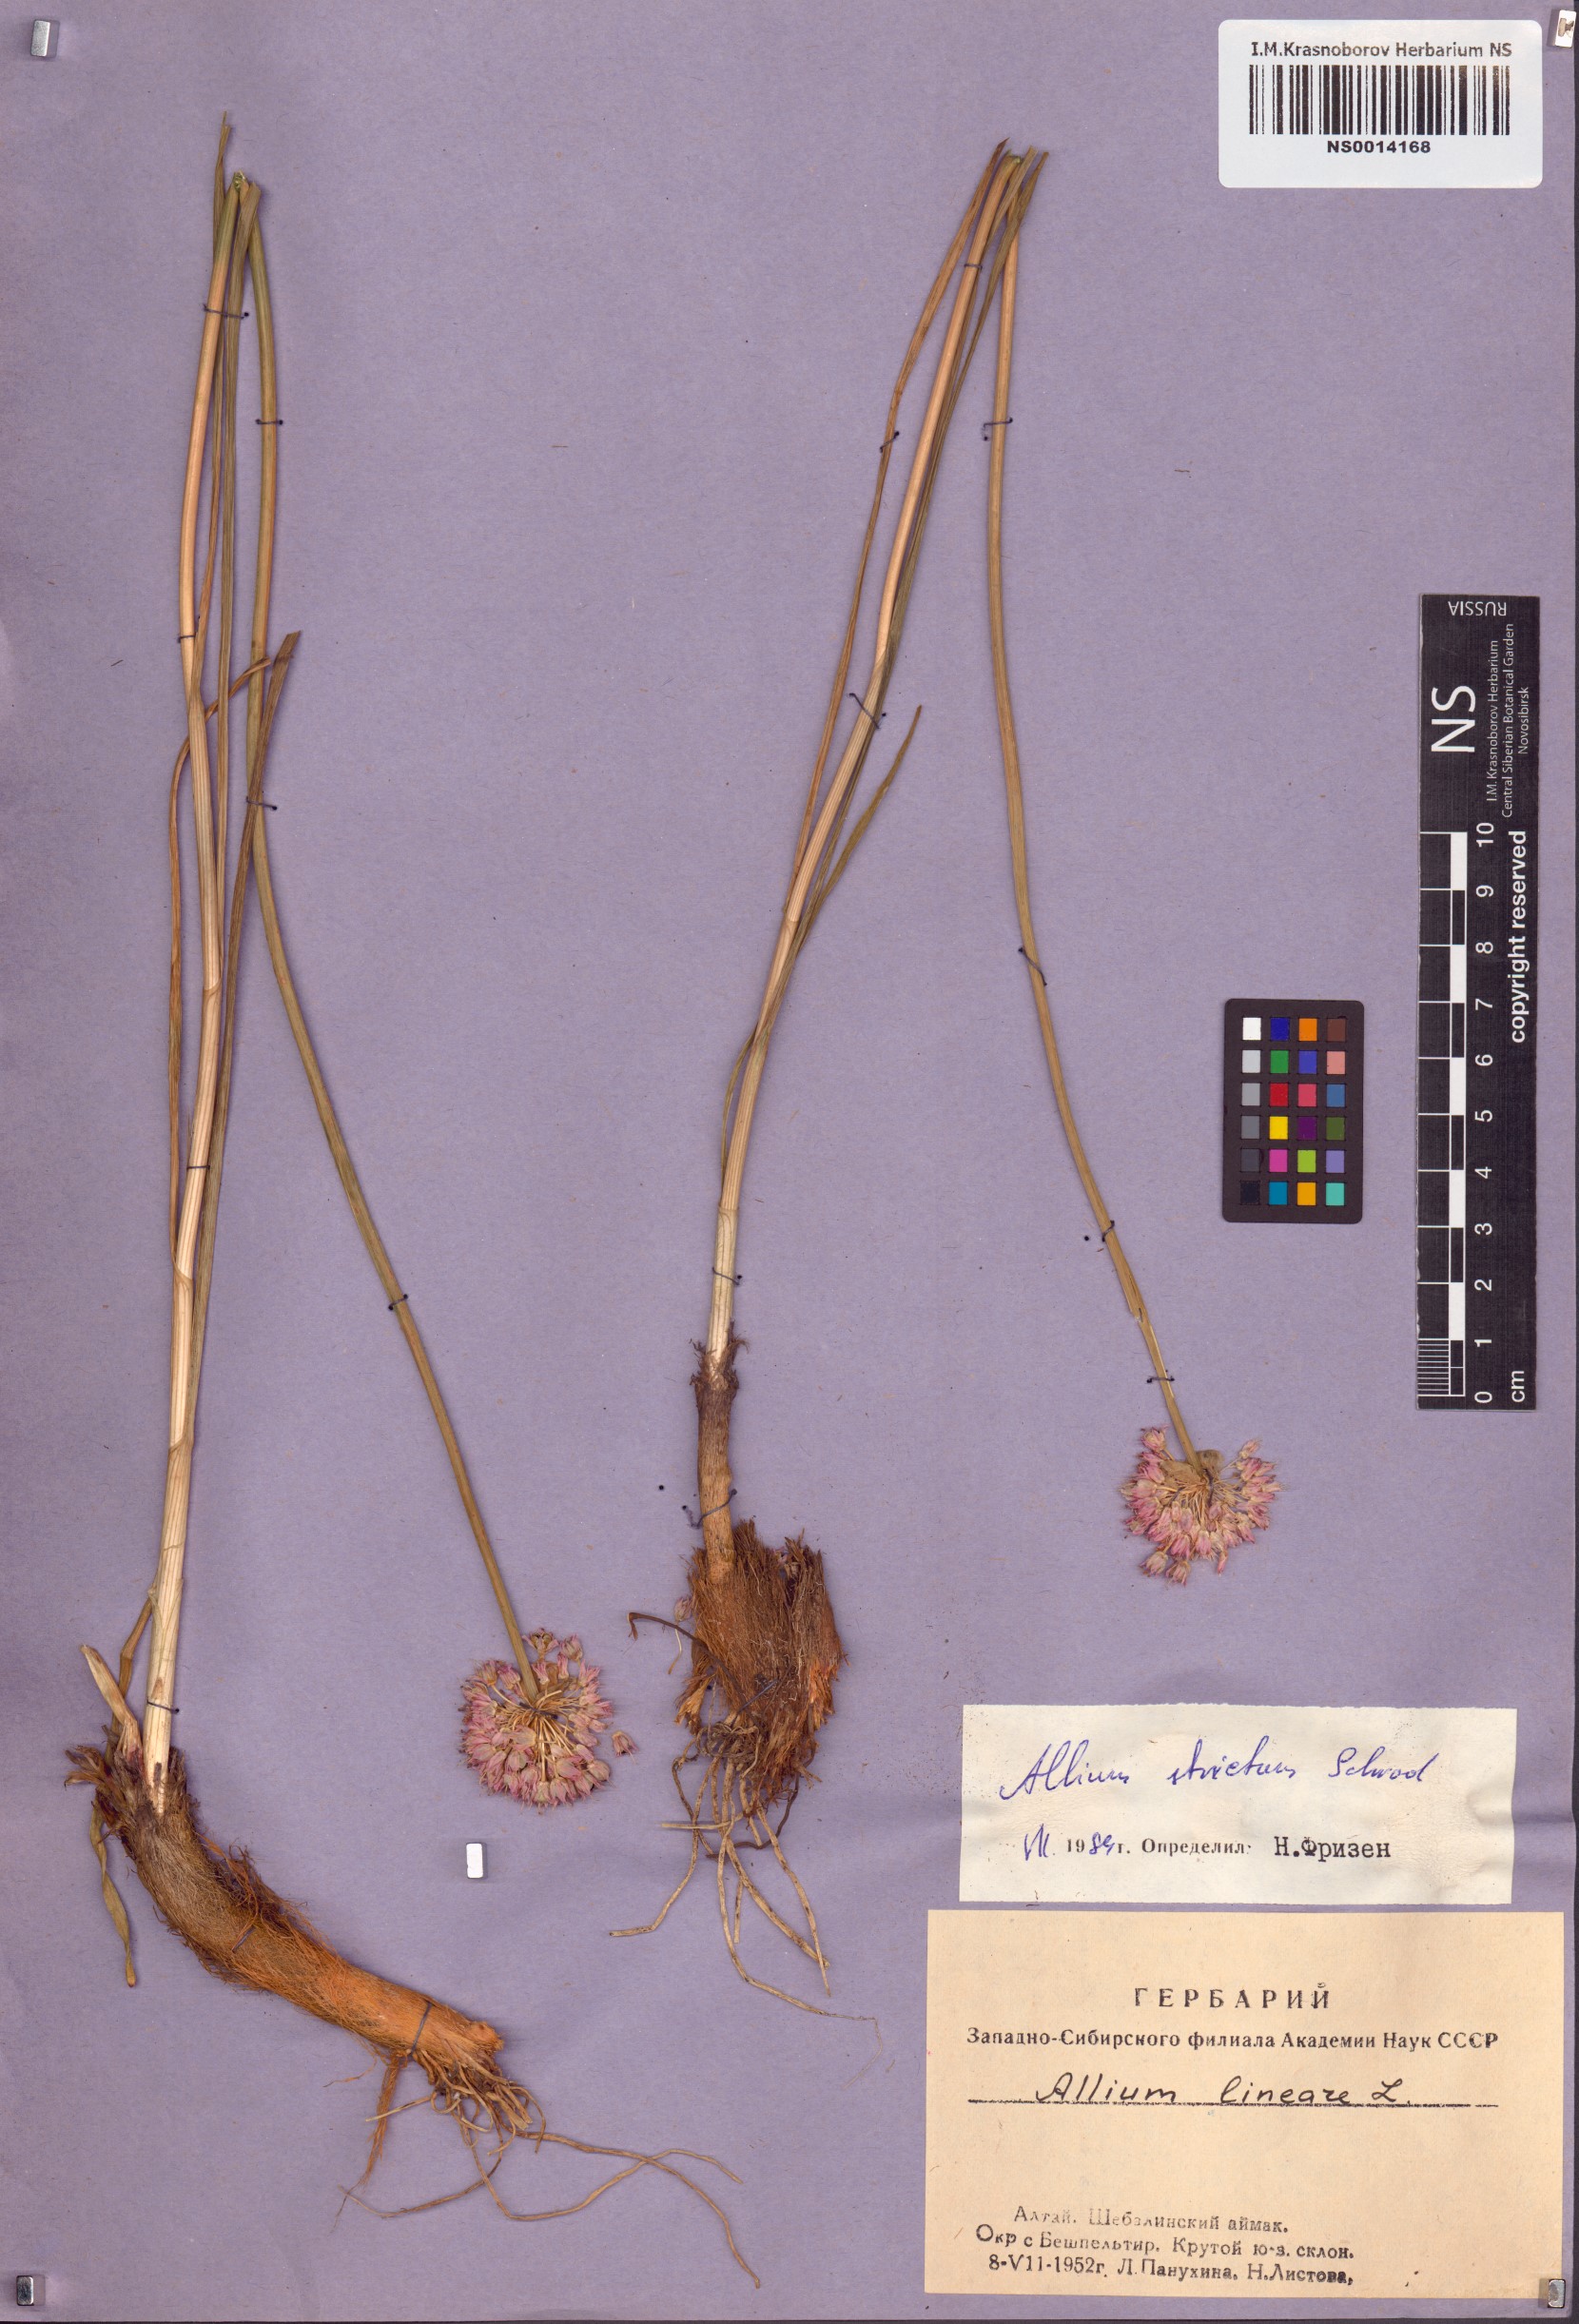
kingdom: Plantae
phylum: Tracheophyta
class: Liliopsida
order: Asparagales
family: Amaryllidaceae
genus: Allium
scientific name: Allium strictum
